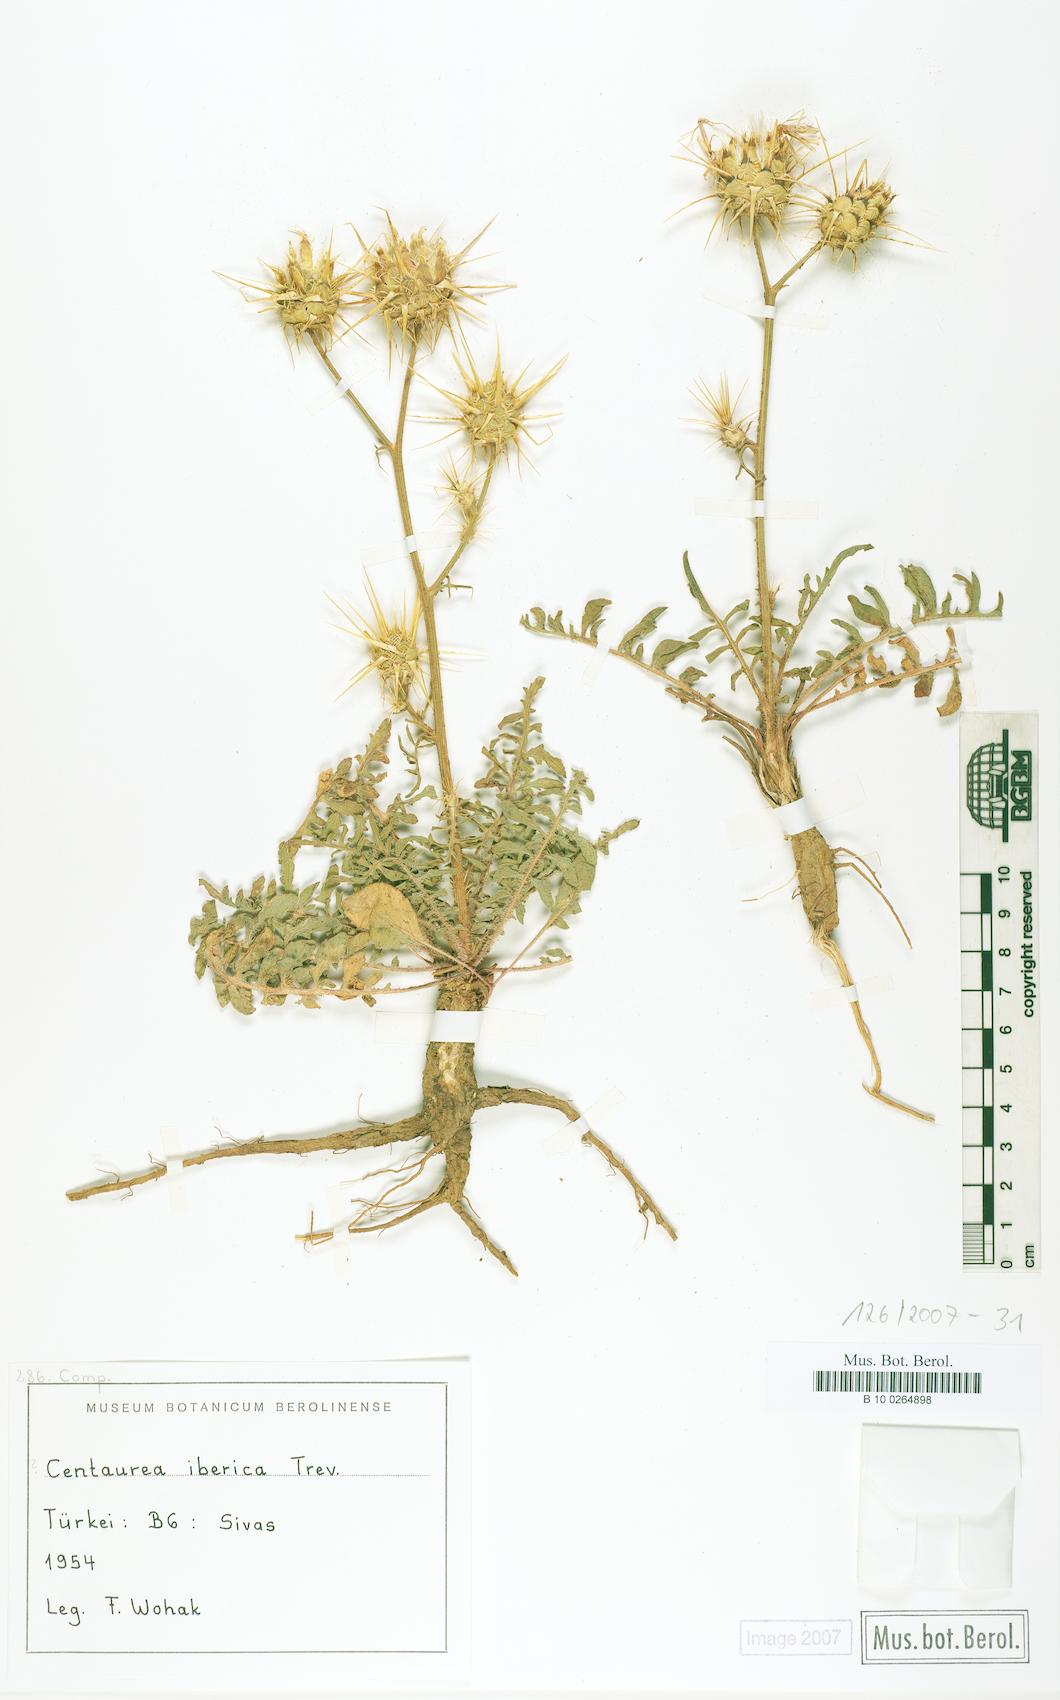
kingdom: Plantae
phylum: Tracheophyta
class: Magnoliopsida
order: Asterales
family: Asteraceae
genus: Centaurea
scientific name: Centaurea iberica
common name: Iberian knapweed
